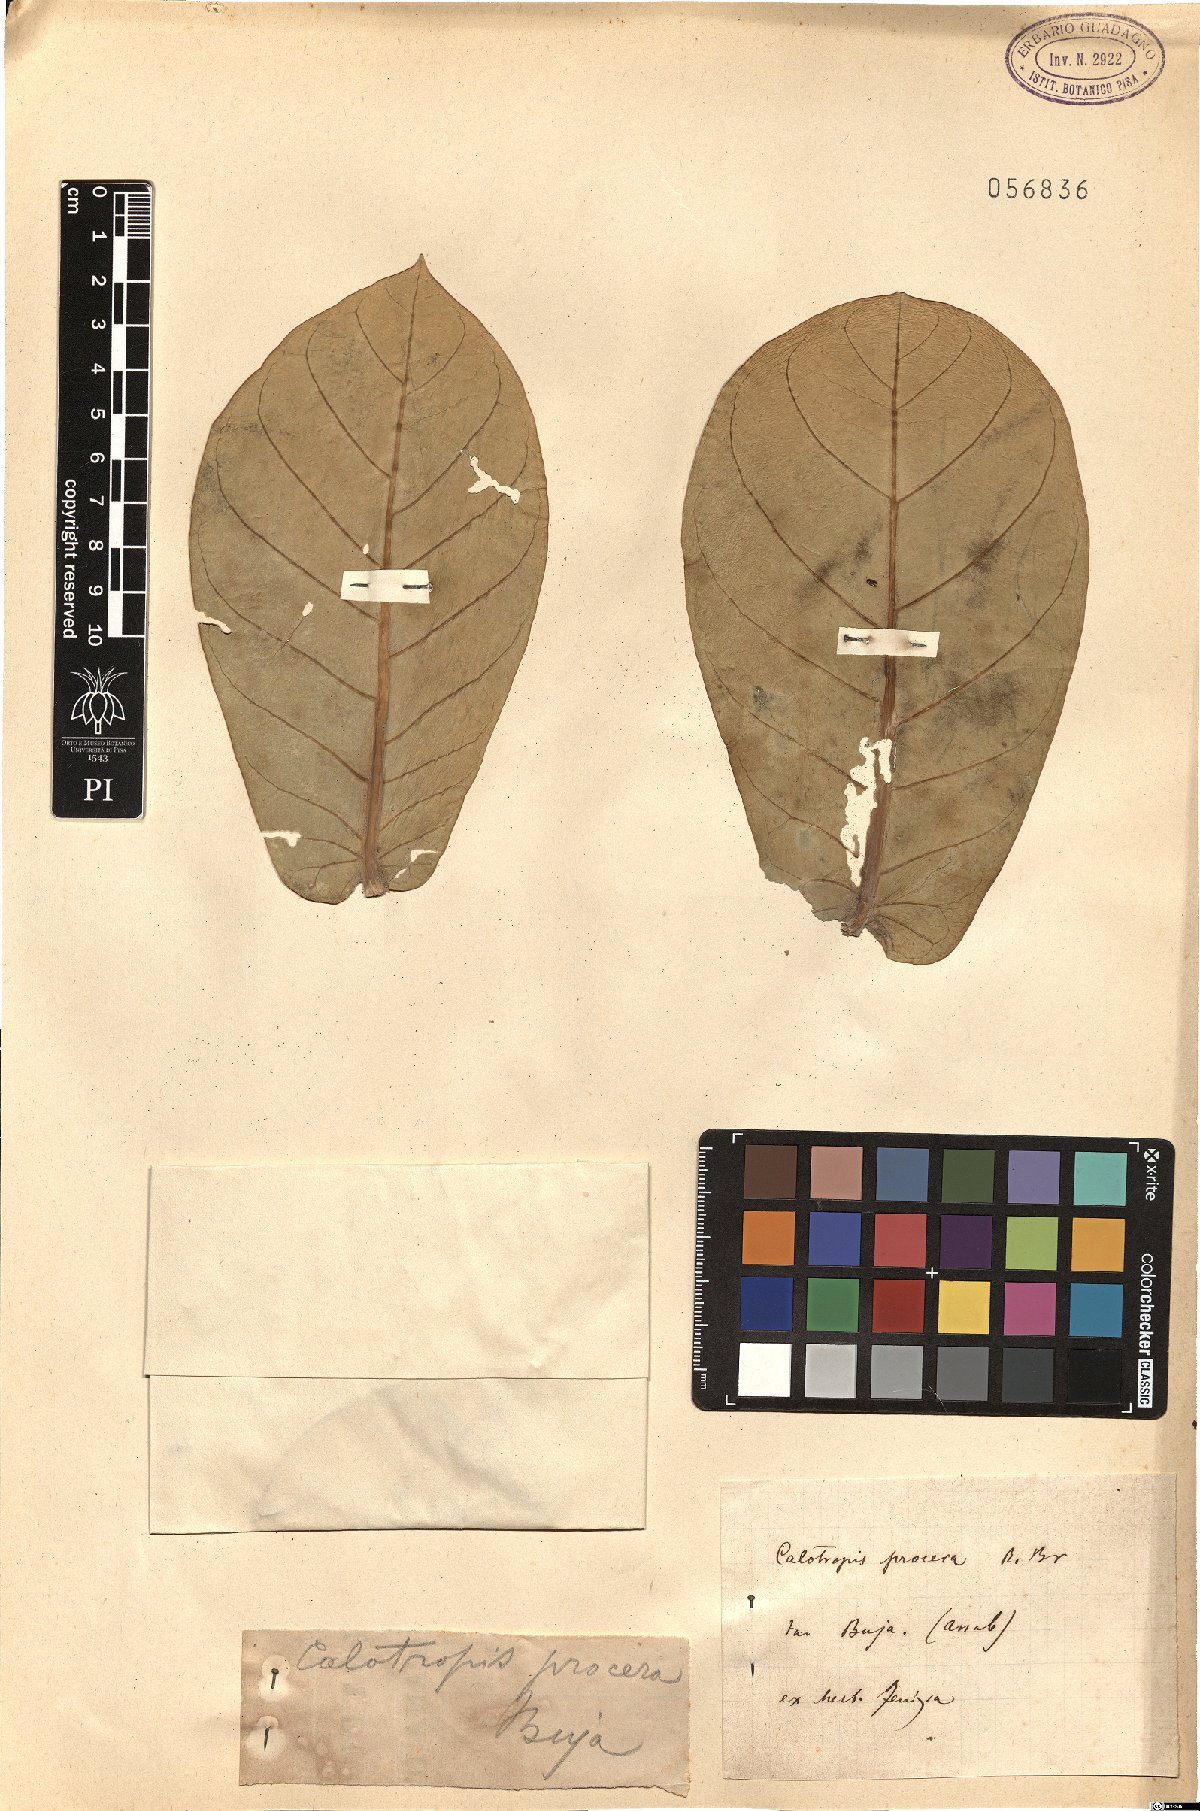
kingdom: Plantae
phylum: Tracheophyta
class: Magnoliopsida
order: Gentianales
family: Apocynaceae
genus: Calotropis
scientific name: Calotropis procera
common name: Roostertree
